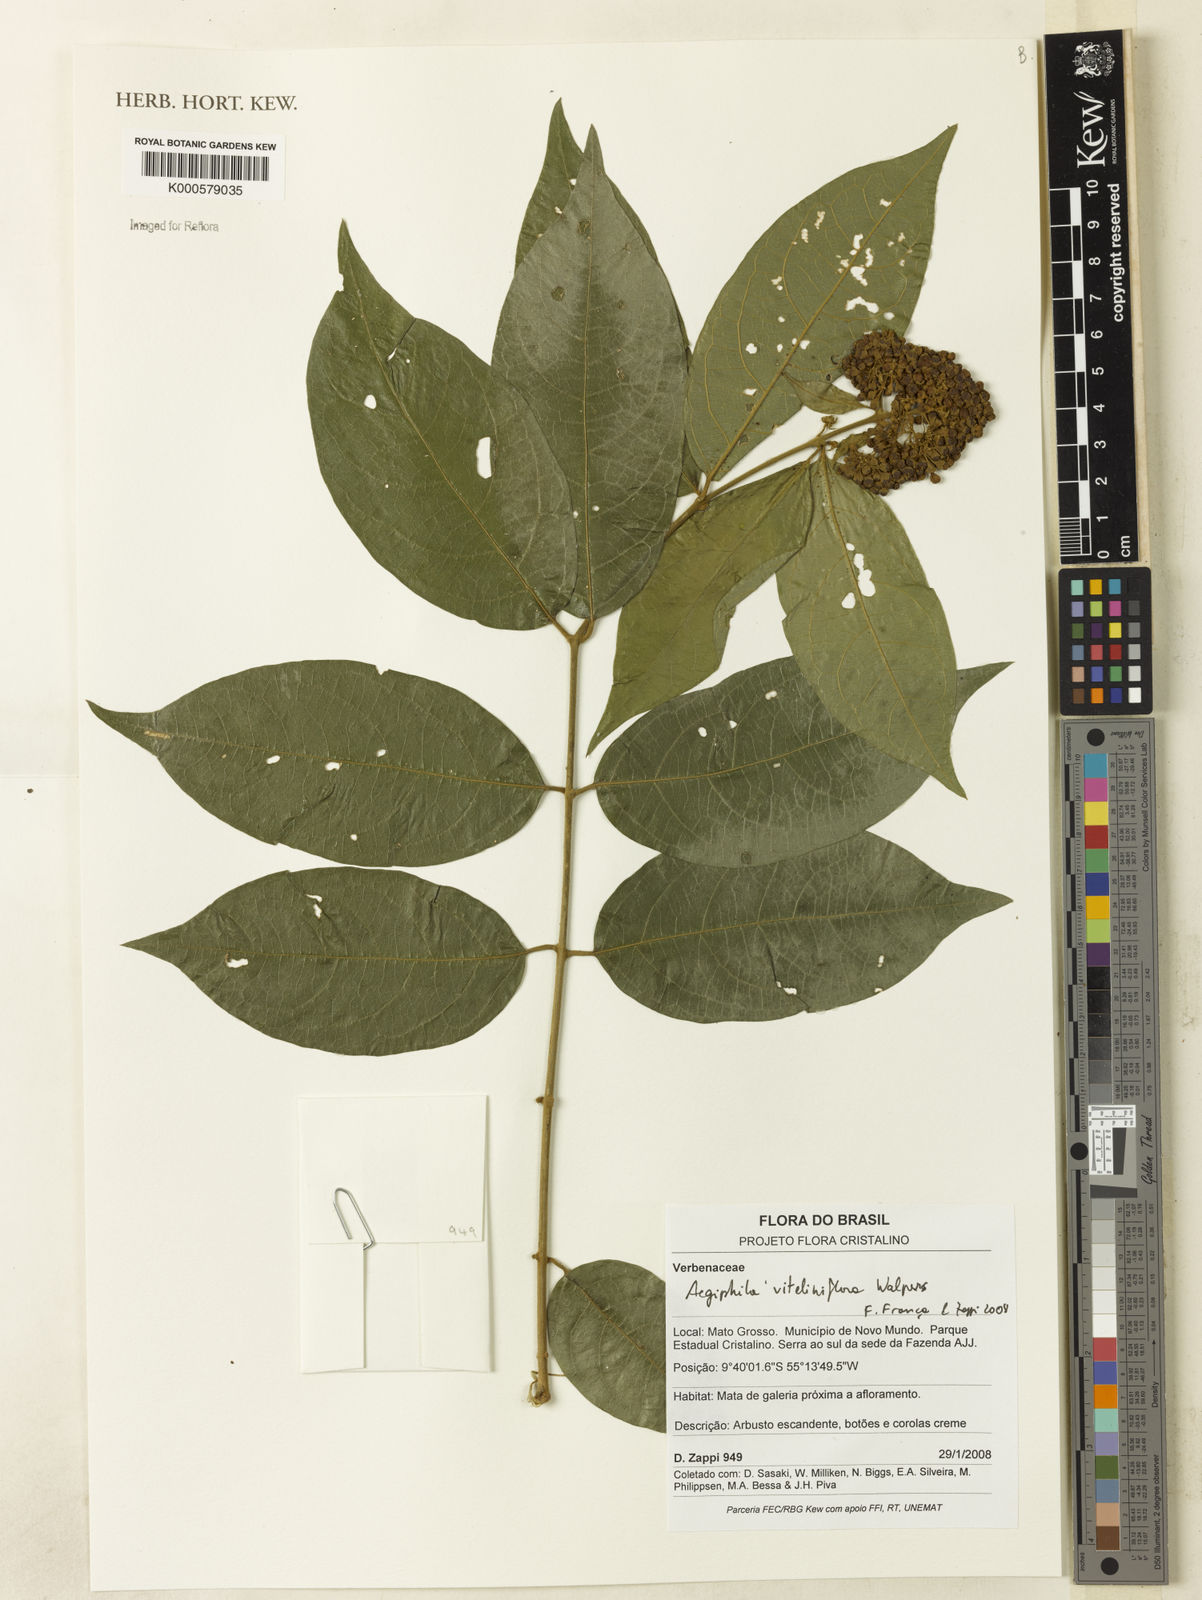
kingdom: Plantae
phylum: Tracheophyta
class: Magnoliopsida
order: Lamiales
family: Lamiaceae
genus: Aegiphila
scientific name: Aegiphila
